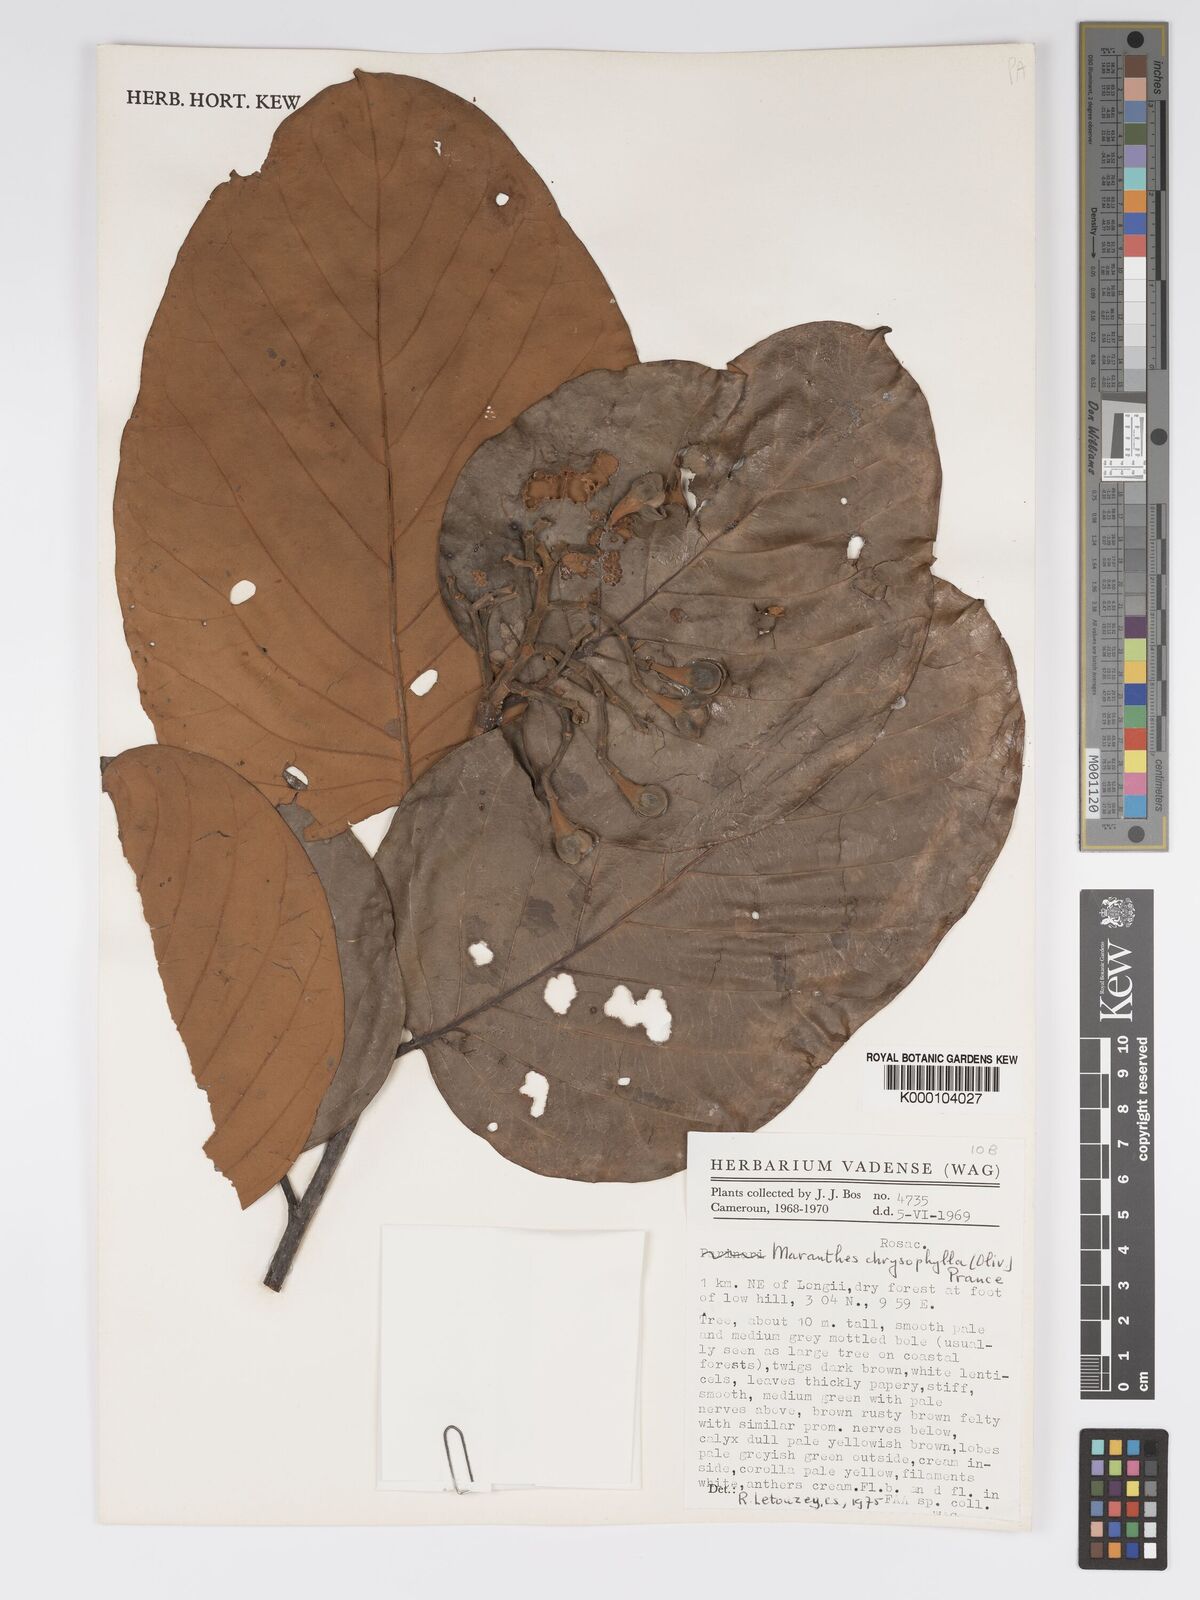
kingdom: Plantae
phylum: Tracheophyta
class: Magnoliopsida
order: Malpighiales
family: Chrysobalanaceae
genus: Maranthes
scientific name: Maranthes chrysophylla
